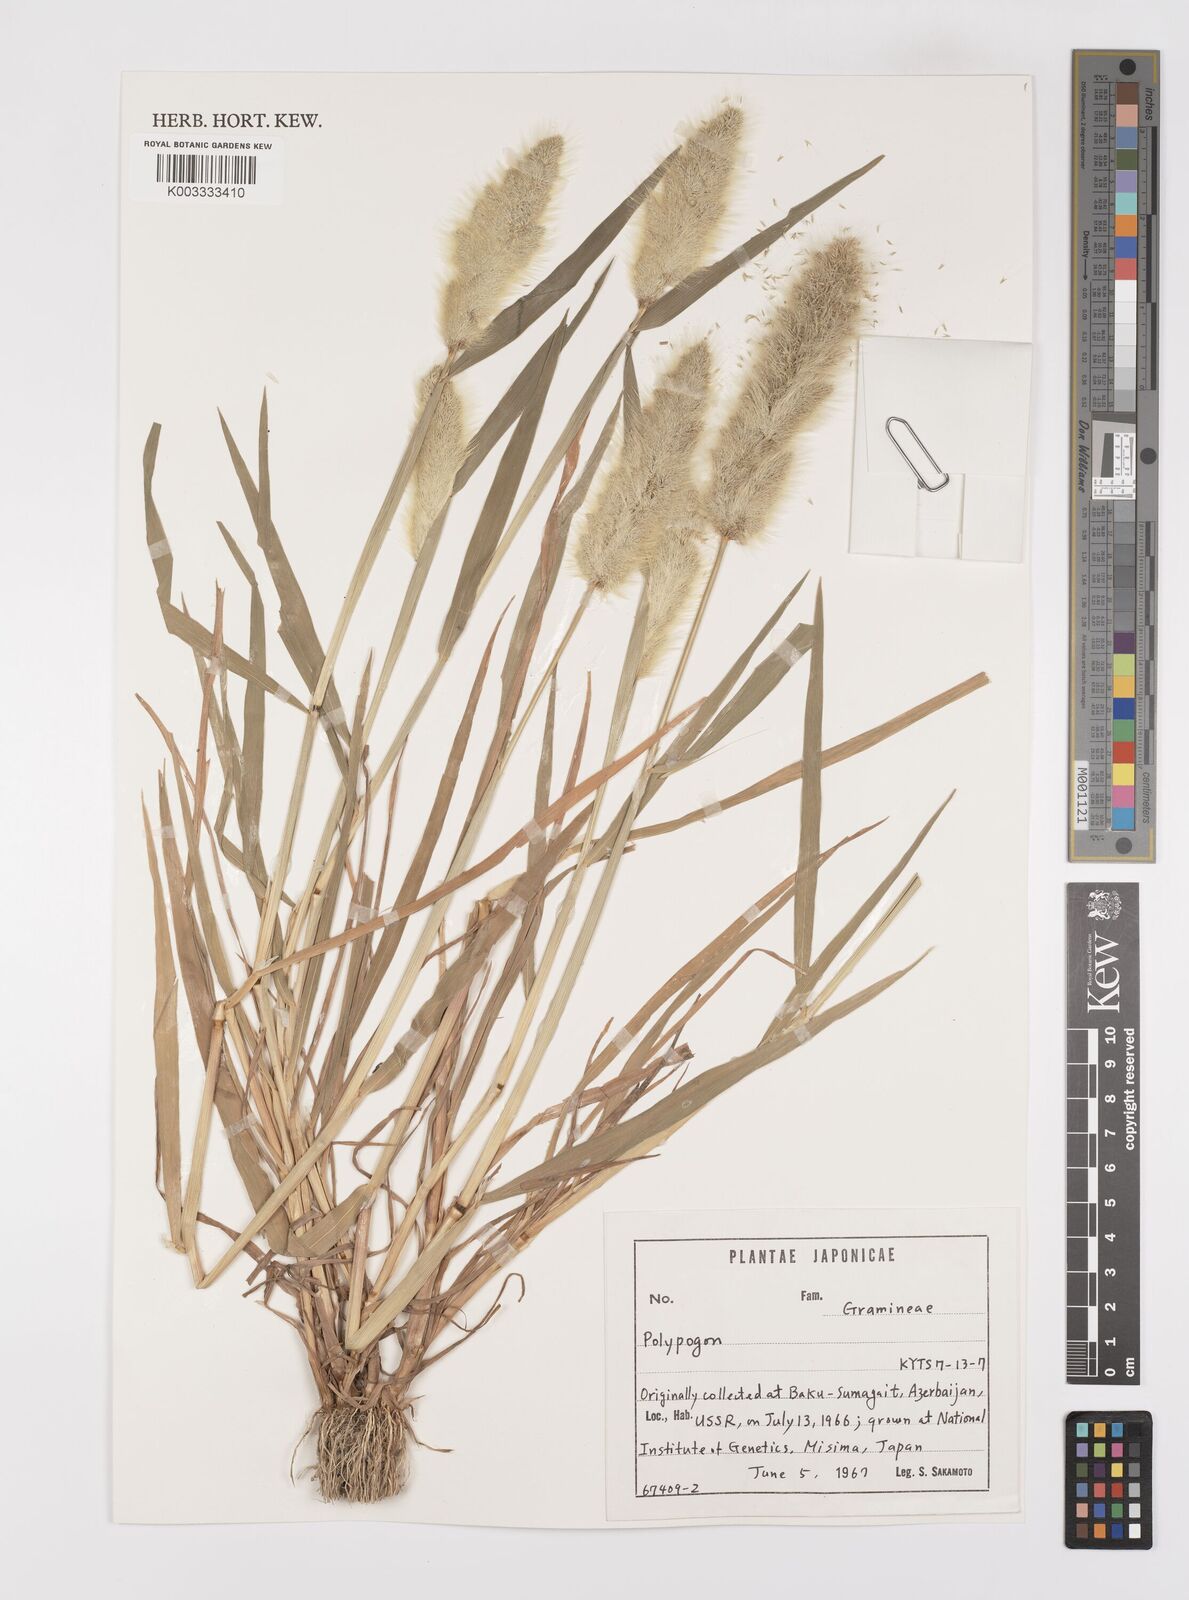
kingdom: Plantae
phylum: Tracheophyta
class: Liliopsida
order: Poales
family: Poaceae
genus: Polypogon
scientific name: Polypogon monspeliensis
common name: Annual rabbitsfoot grass
